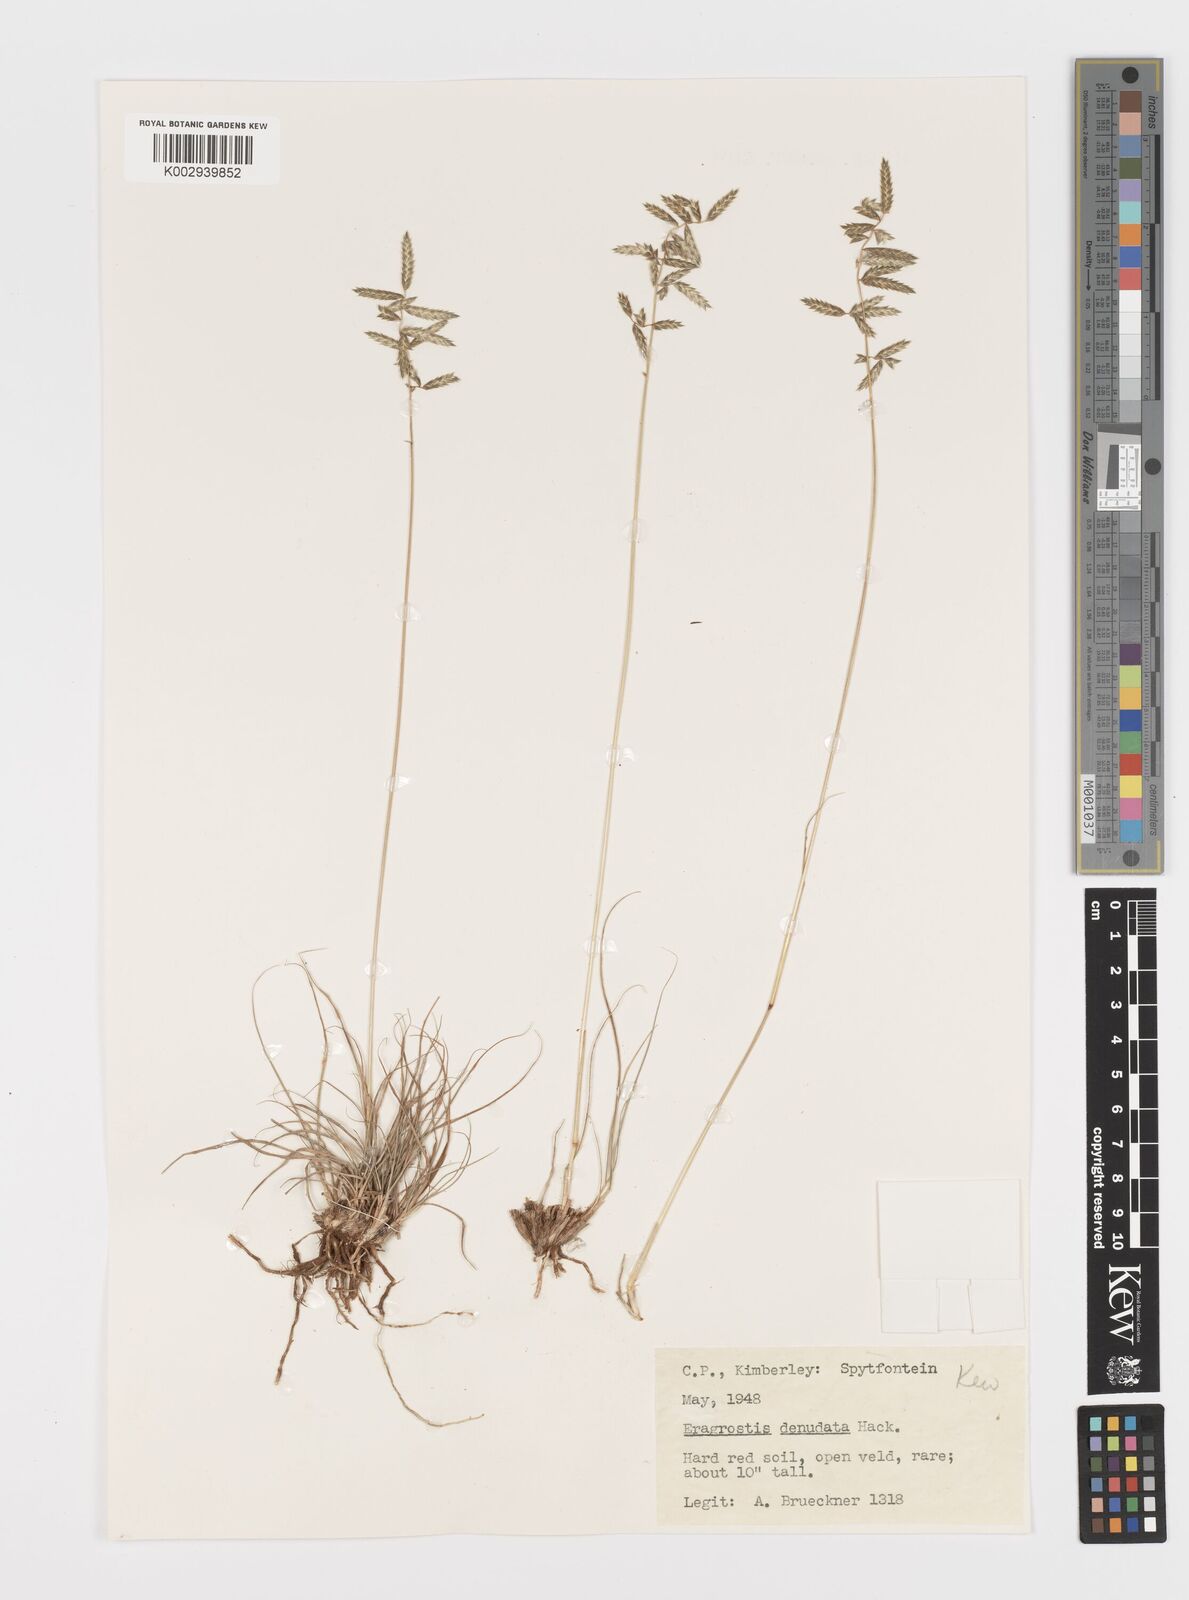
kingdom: Plantae
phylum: Tracheophyta
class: Liliopsida
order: Poales
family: Poaceae
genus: Eragrostis
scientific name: Eragrostis nindensis
